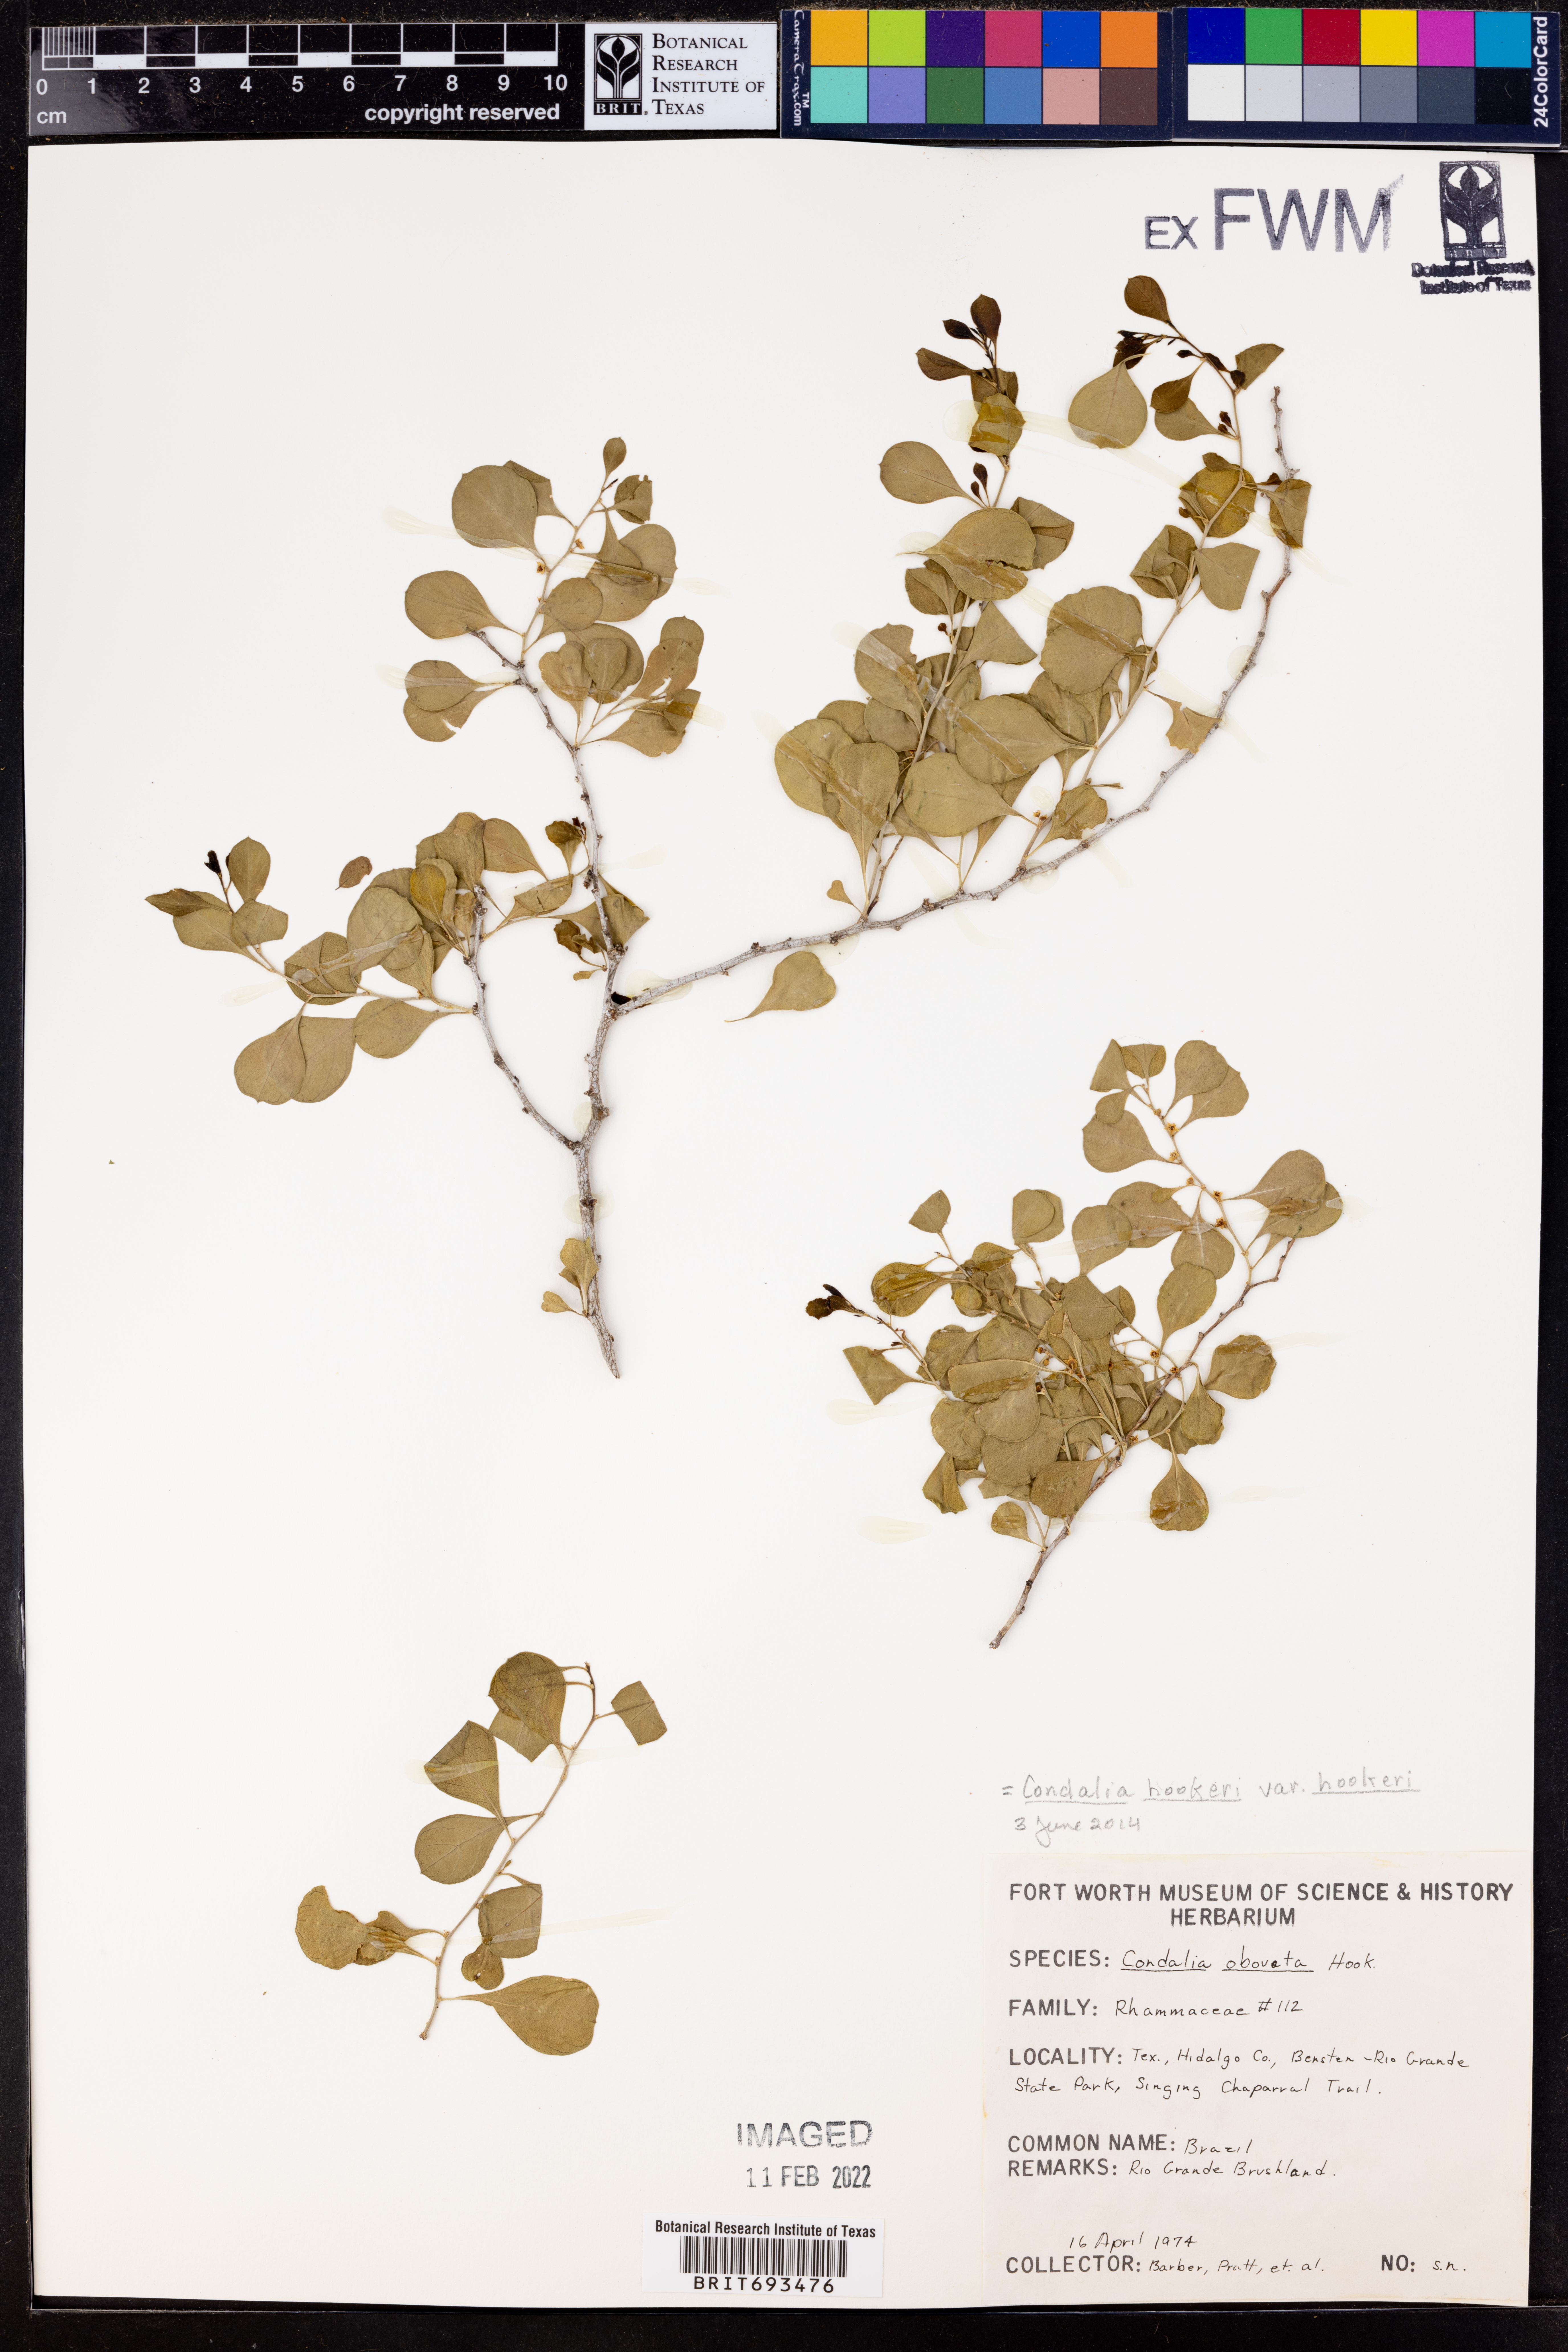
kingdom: Plantae
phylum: Tracheophyta
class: Magnoliopsida
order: Rosales
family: Rhamnaceae
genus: Condalia
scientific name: Condalia hookeri
